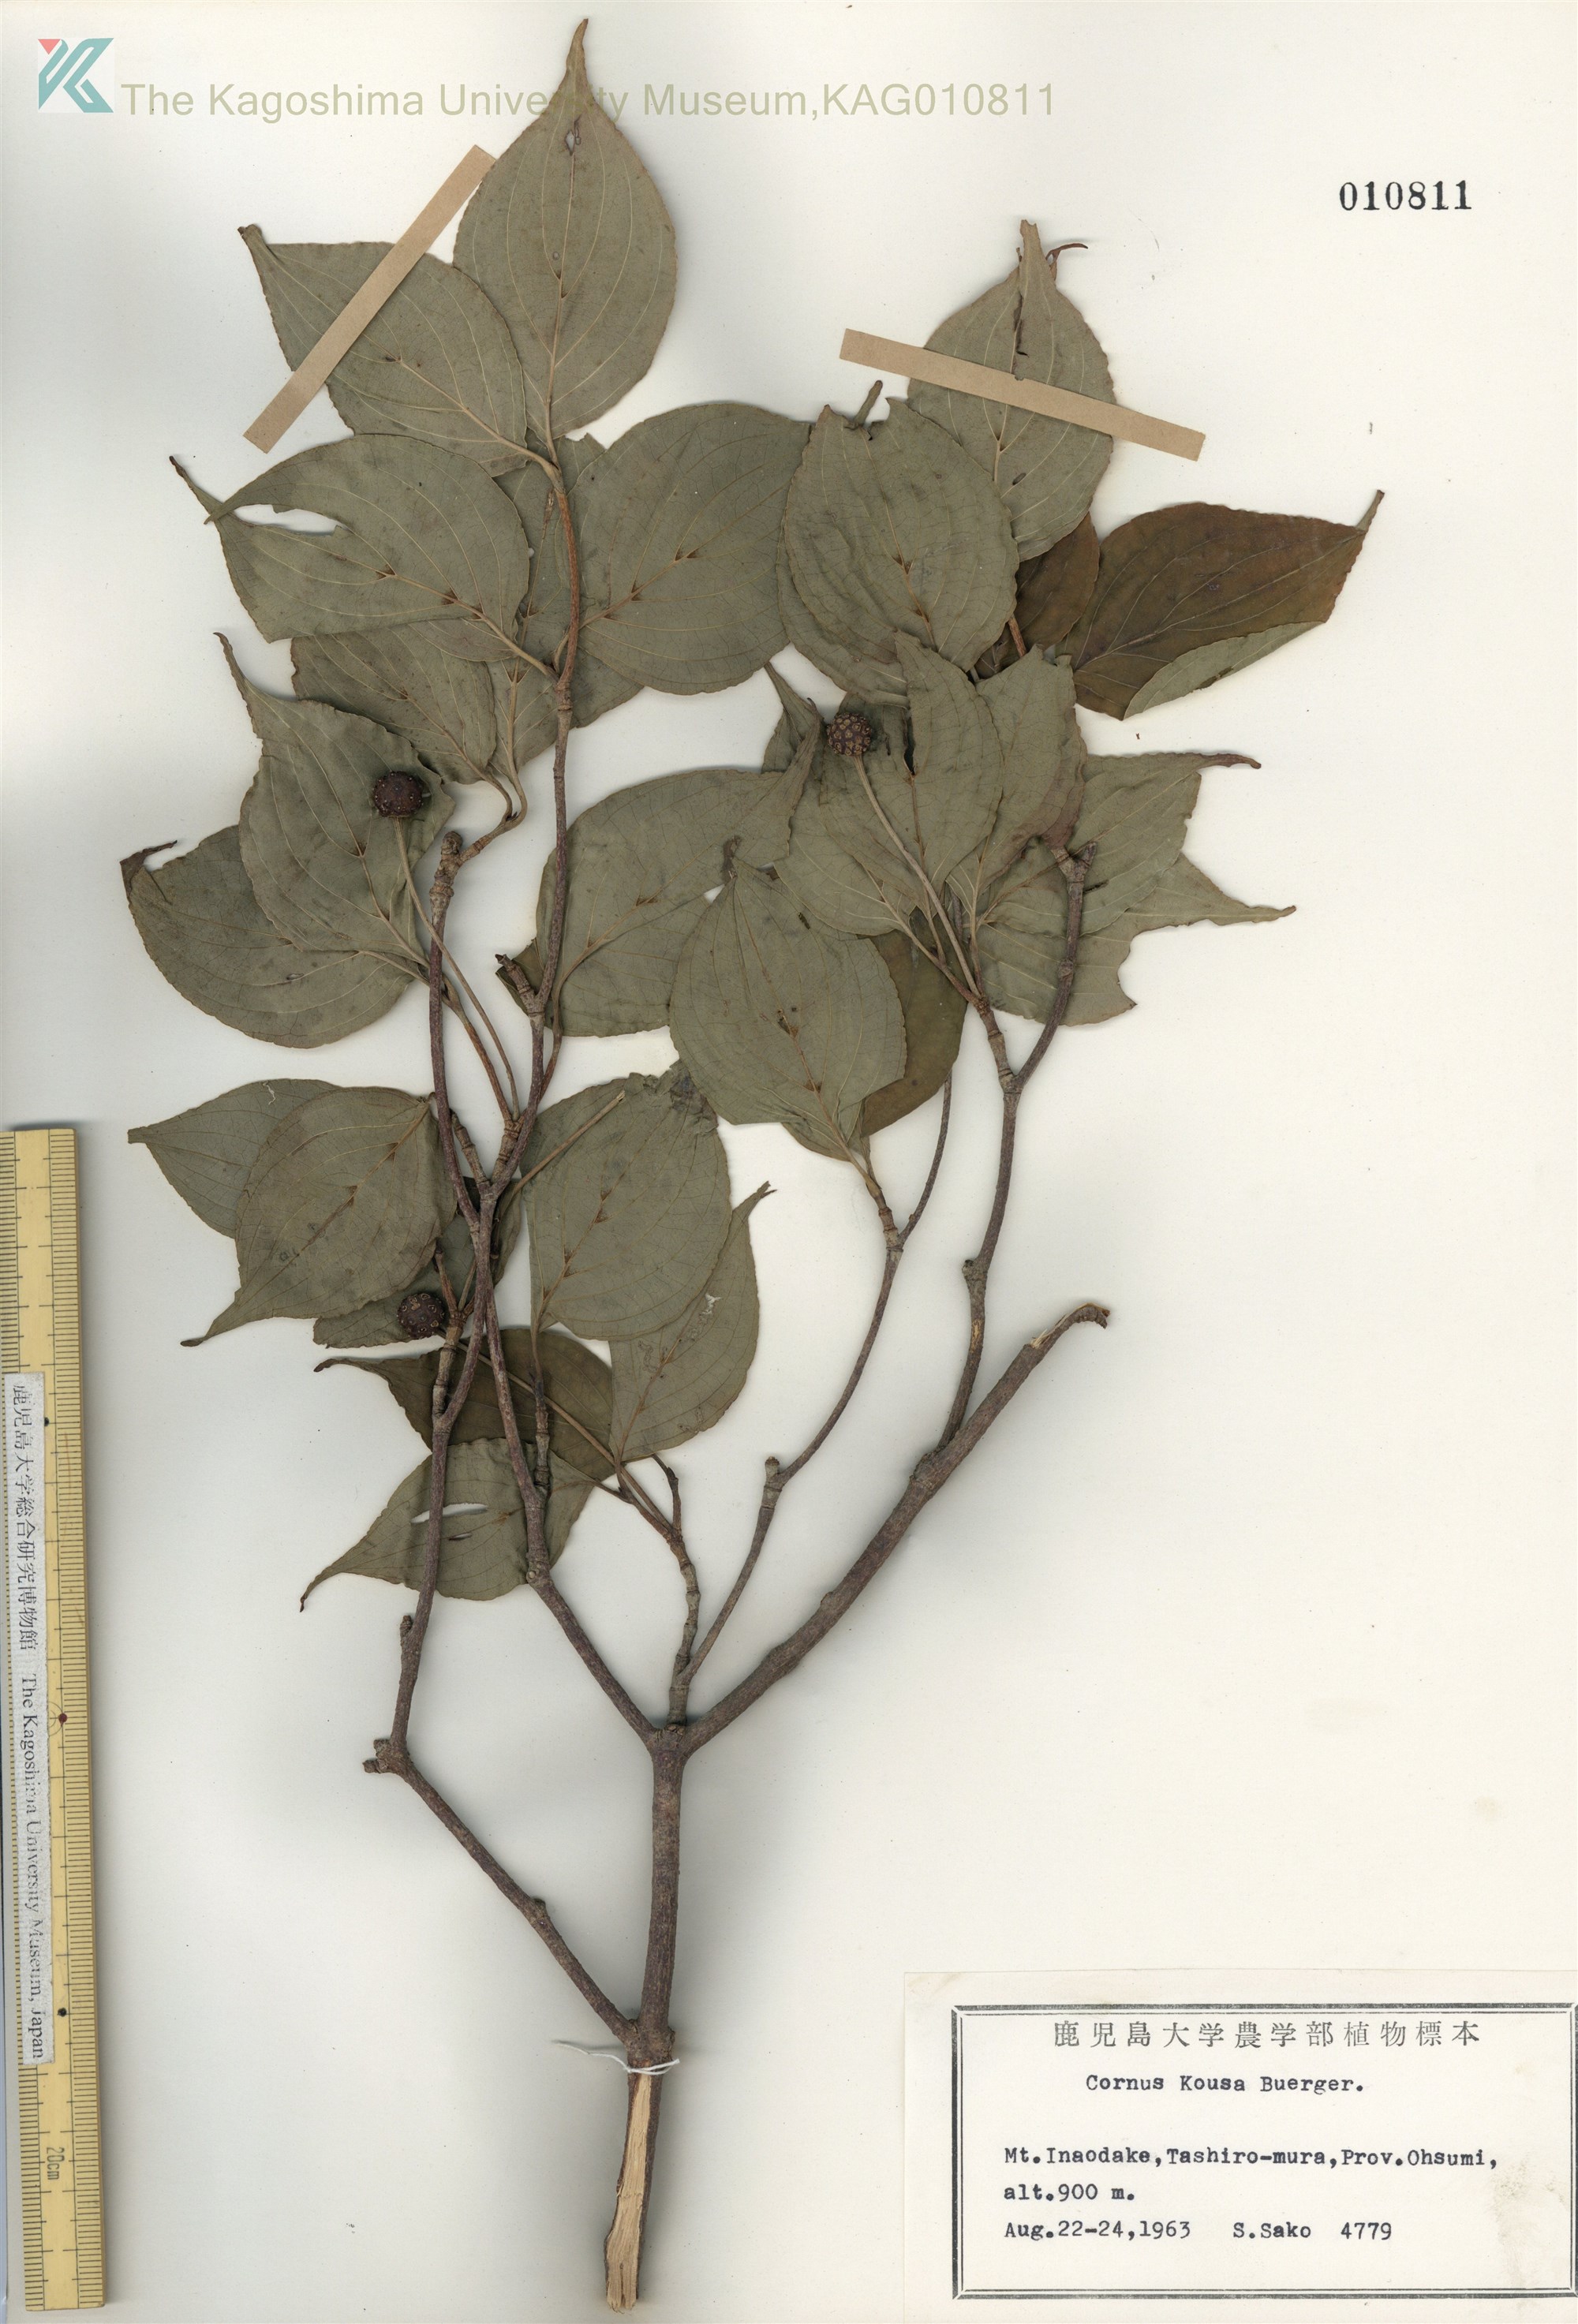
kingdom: Plantae
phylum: Tracheophyta
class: Magnoliopsida
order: Cornales
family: Cornaceae
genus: Cornus
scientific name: Cornus kousa
